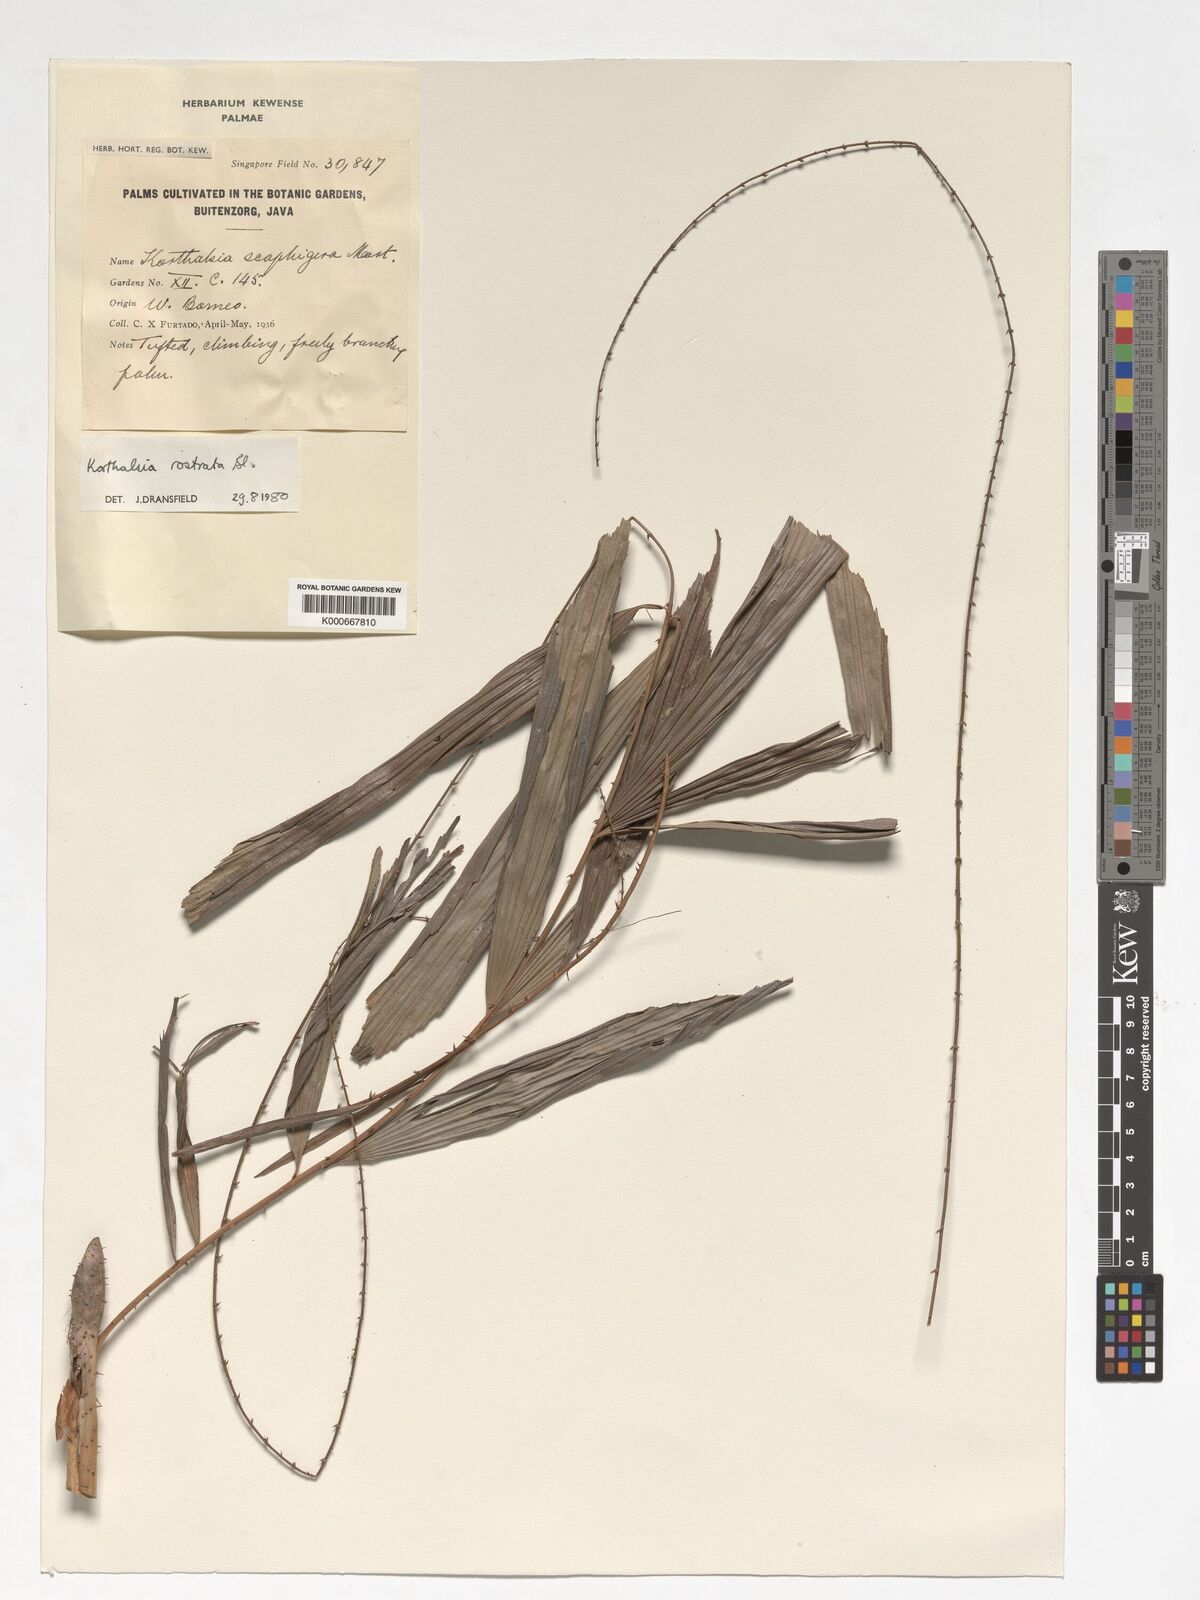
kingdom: Plantae
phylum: Tracheophyta
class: Liliopsida
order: Arecales
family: Arecaceae
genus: Korthalsia
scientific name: Korthalsia rostrata
